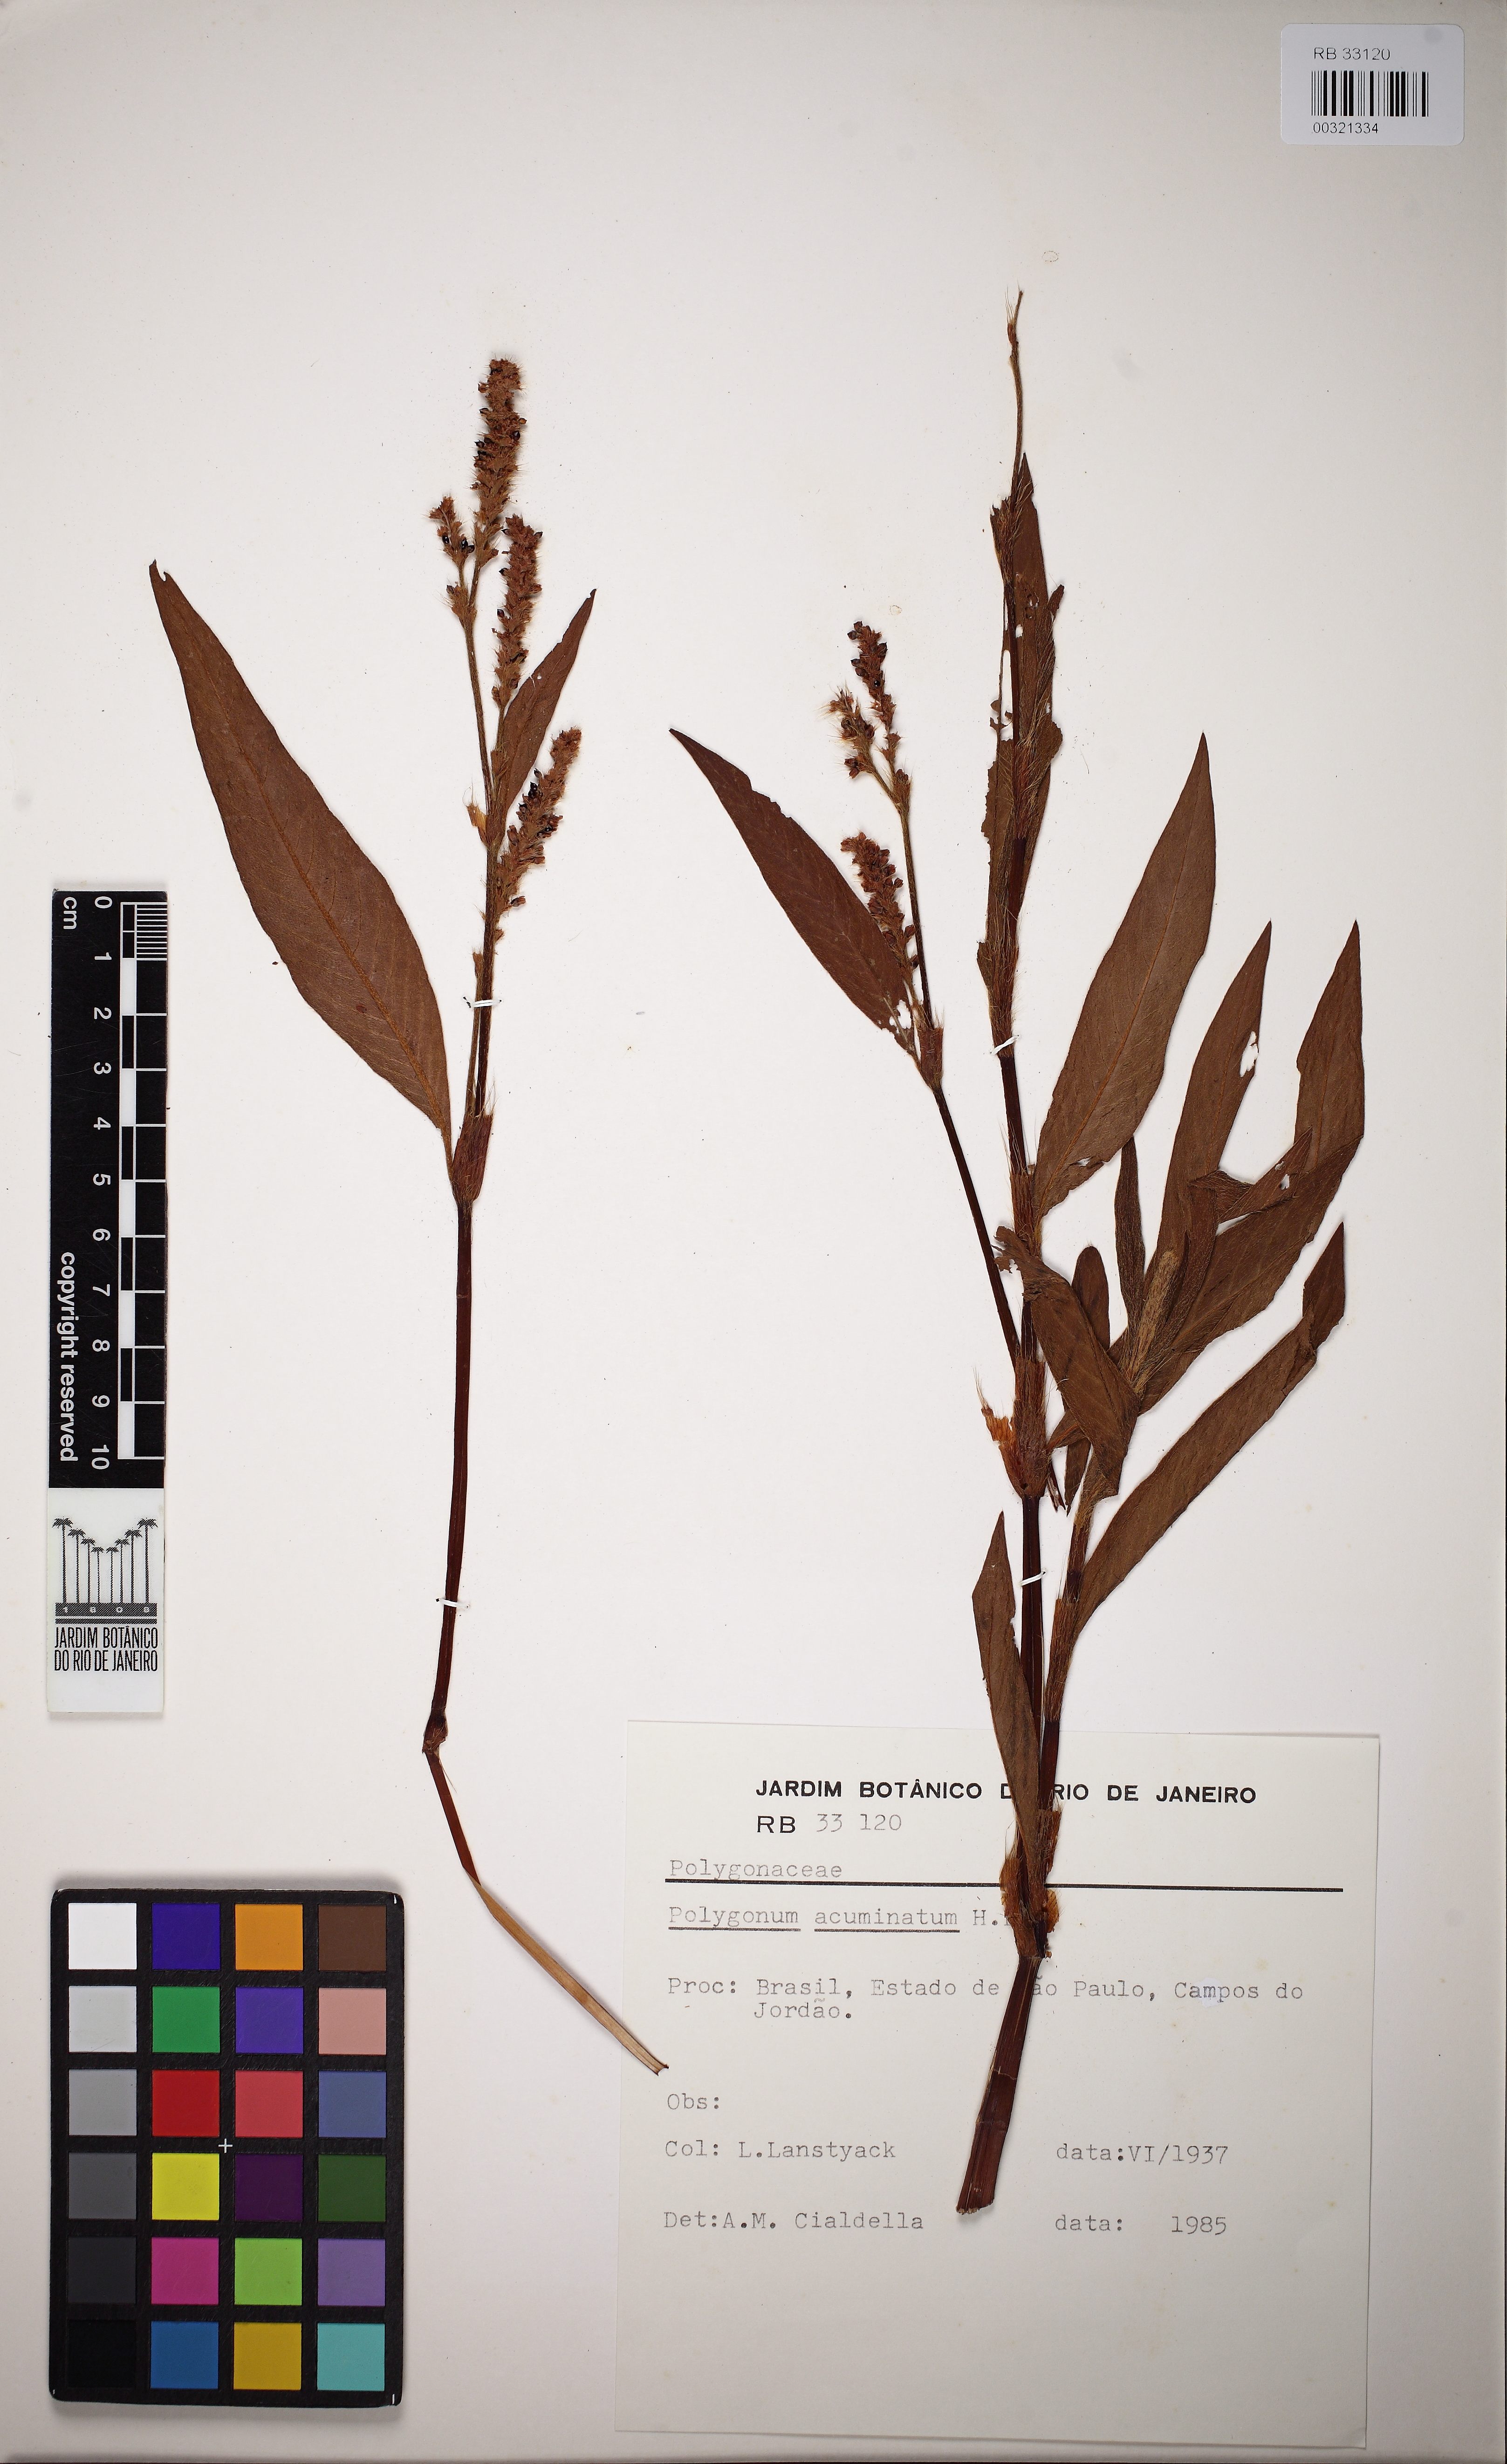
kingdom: Plantae
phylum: Tracheophyta
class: Magnoliopsida
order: Caryophyllales
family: Polygonaceae
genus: Persicaria
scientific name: Persicaria acuminata
